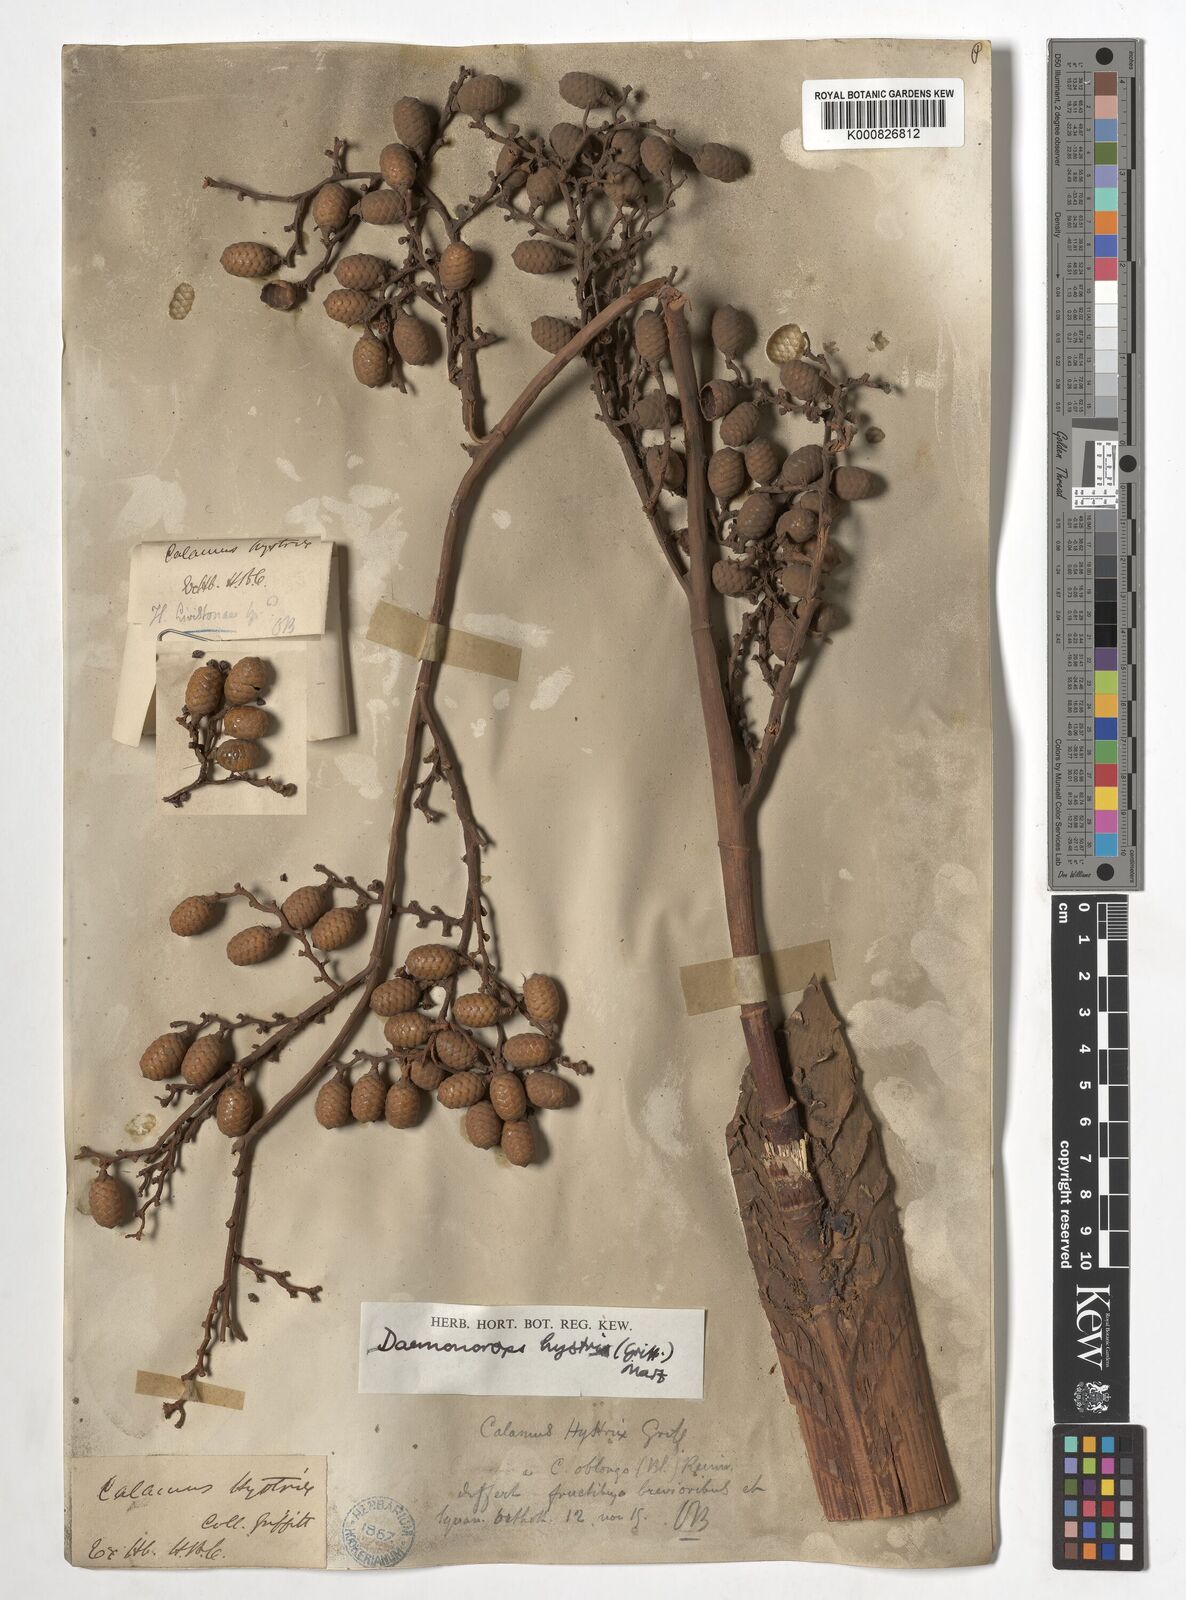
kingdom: Plantae
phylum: Tracheophyta
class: Liliopsida
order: Arecales
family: Arecaceae
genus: Calamus
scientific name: Calamus hirsutus
